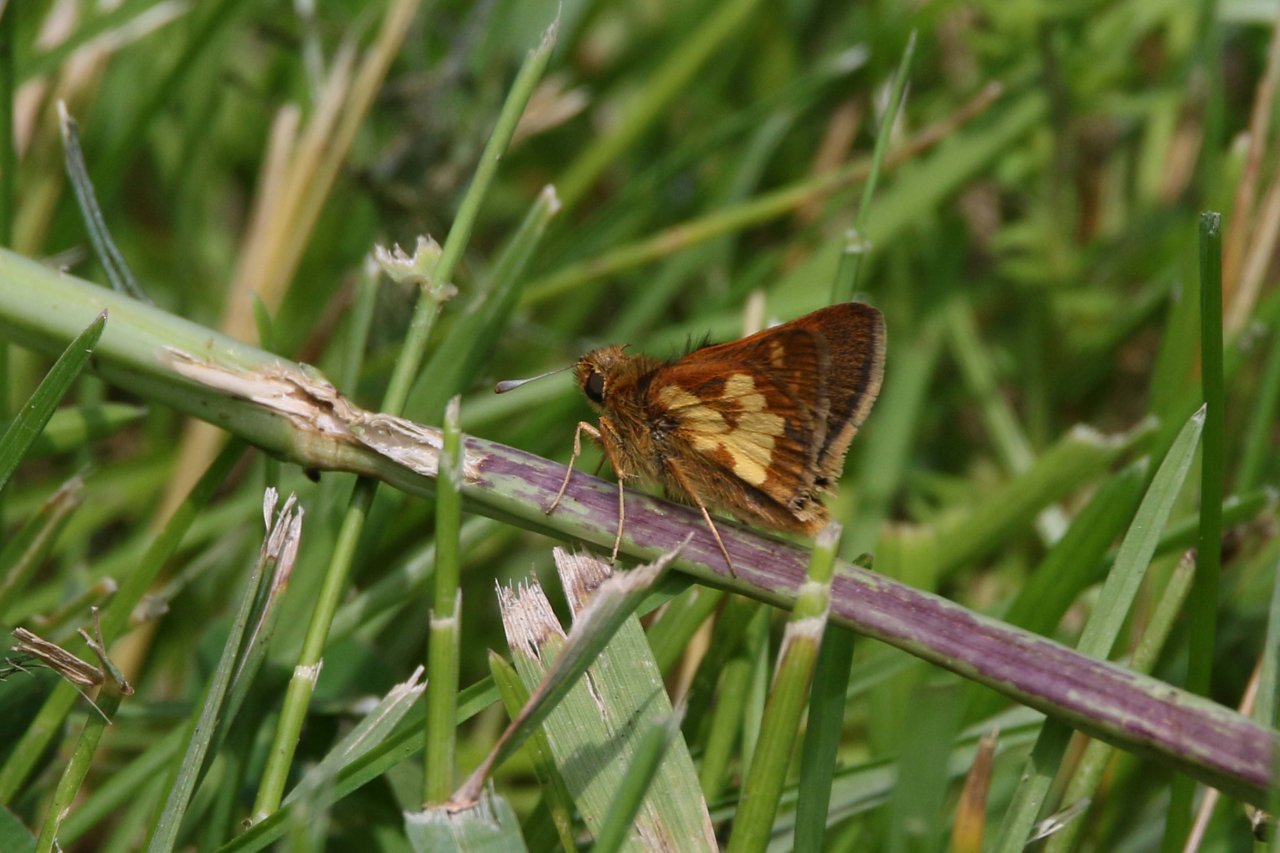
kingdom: Animalia
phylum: Arthropoda
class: Insecta
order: Lepidoptera
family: Hesperiidae
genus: Polites
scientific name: Polites coras
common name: Peck's Skipper
